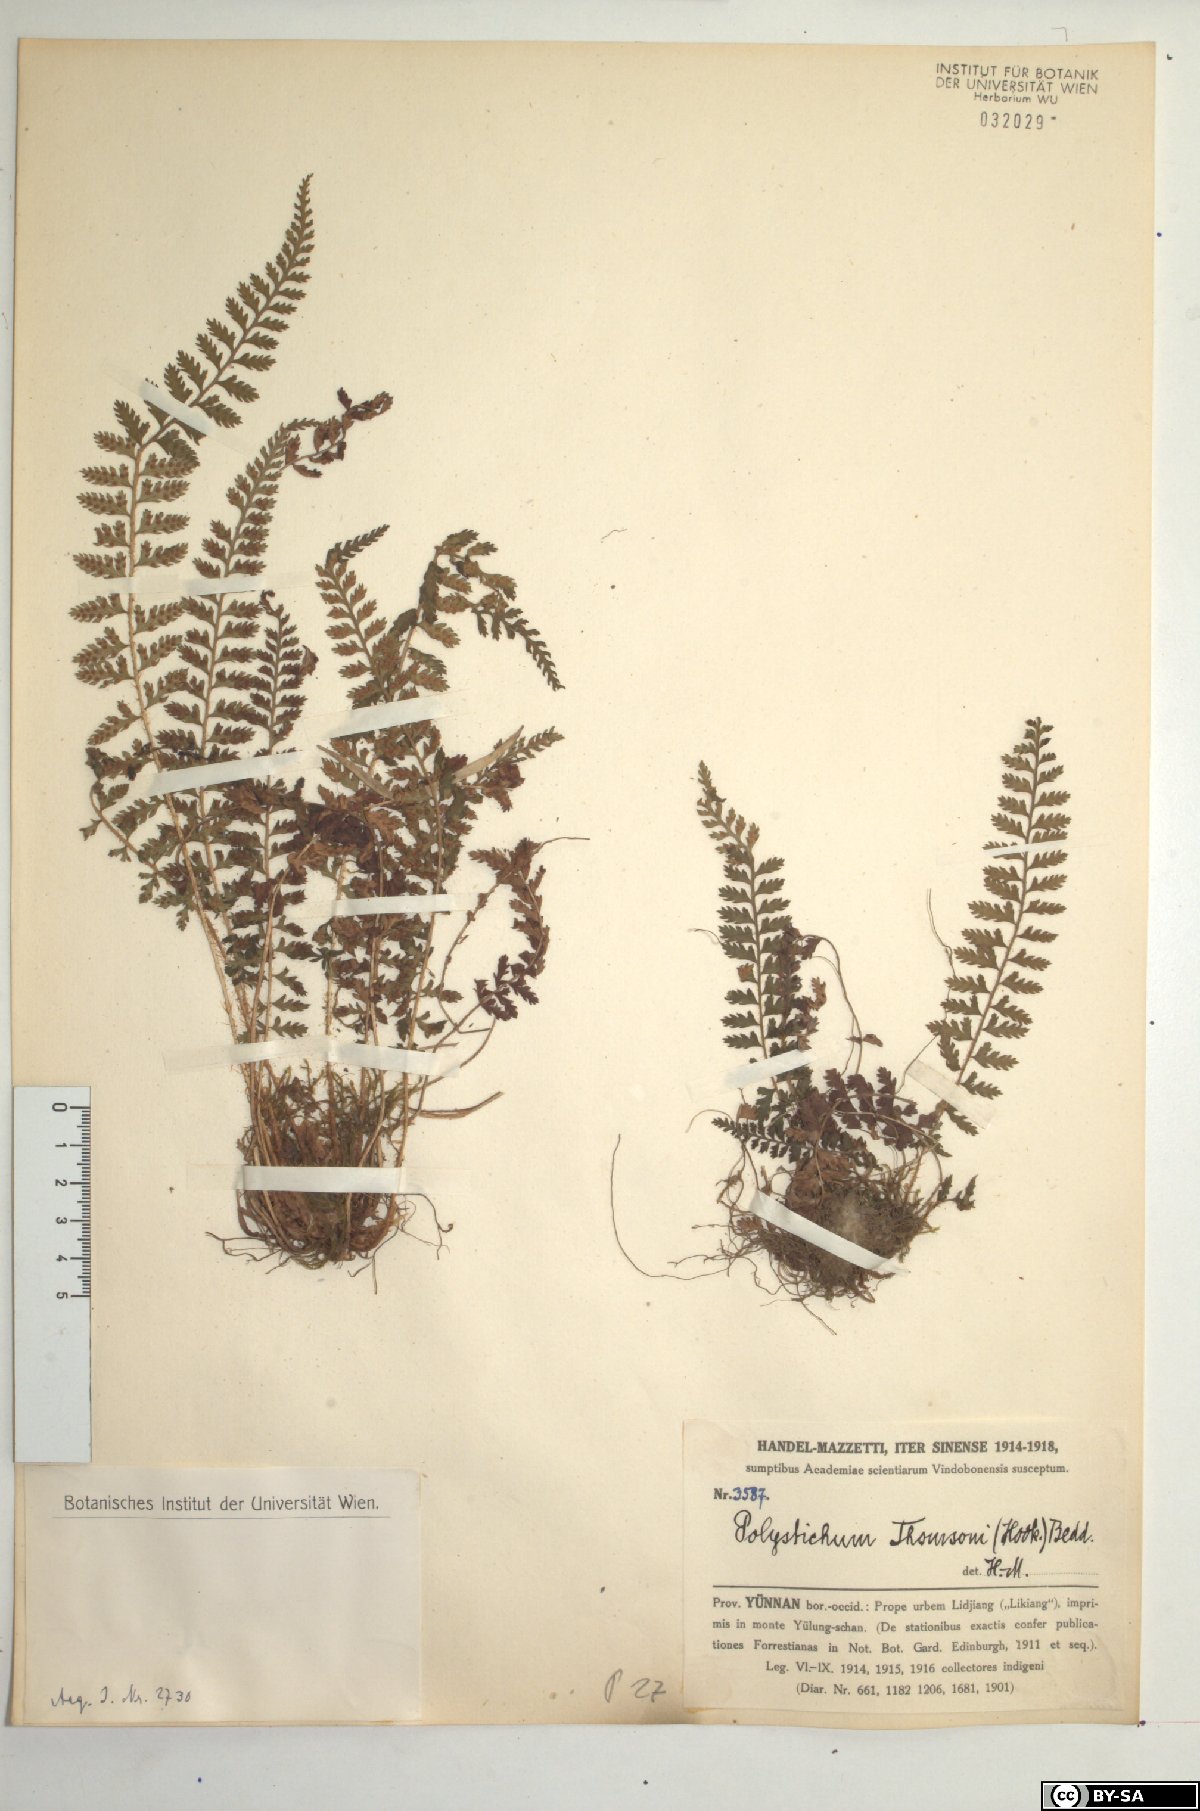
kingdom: Plantae
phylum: Tracheophyta
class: Polypodiopsida
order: Polypodiales
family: Dryopteridaceae
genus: Polystichum
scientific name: Polystichum thomsonii
